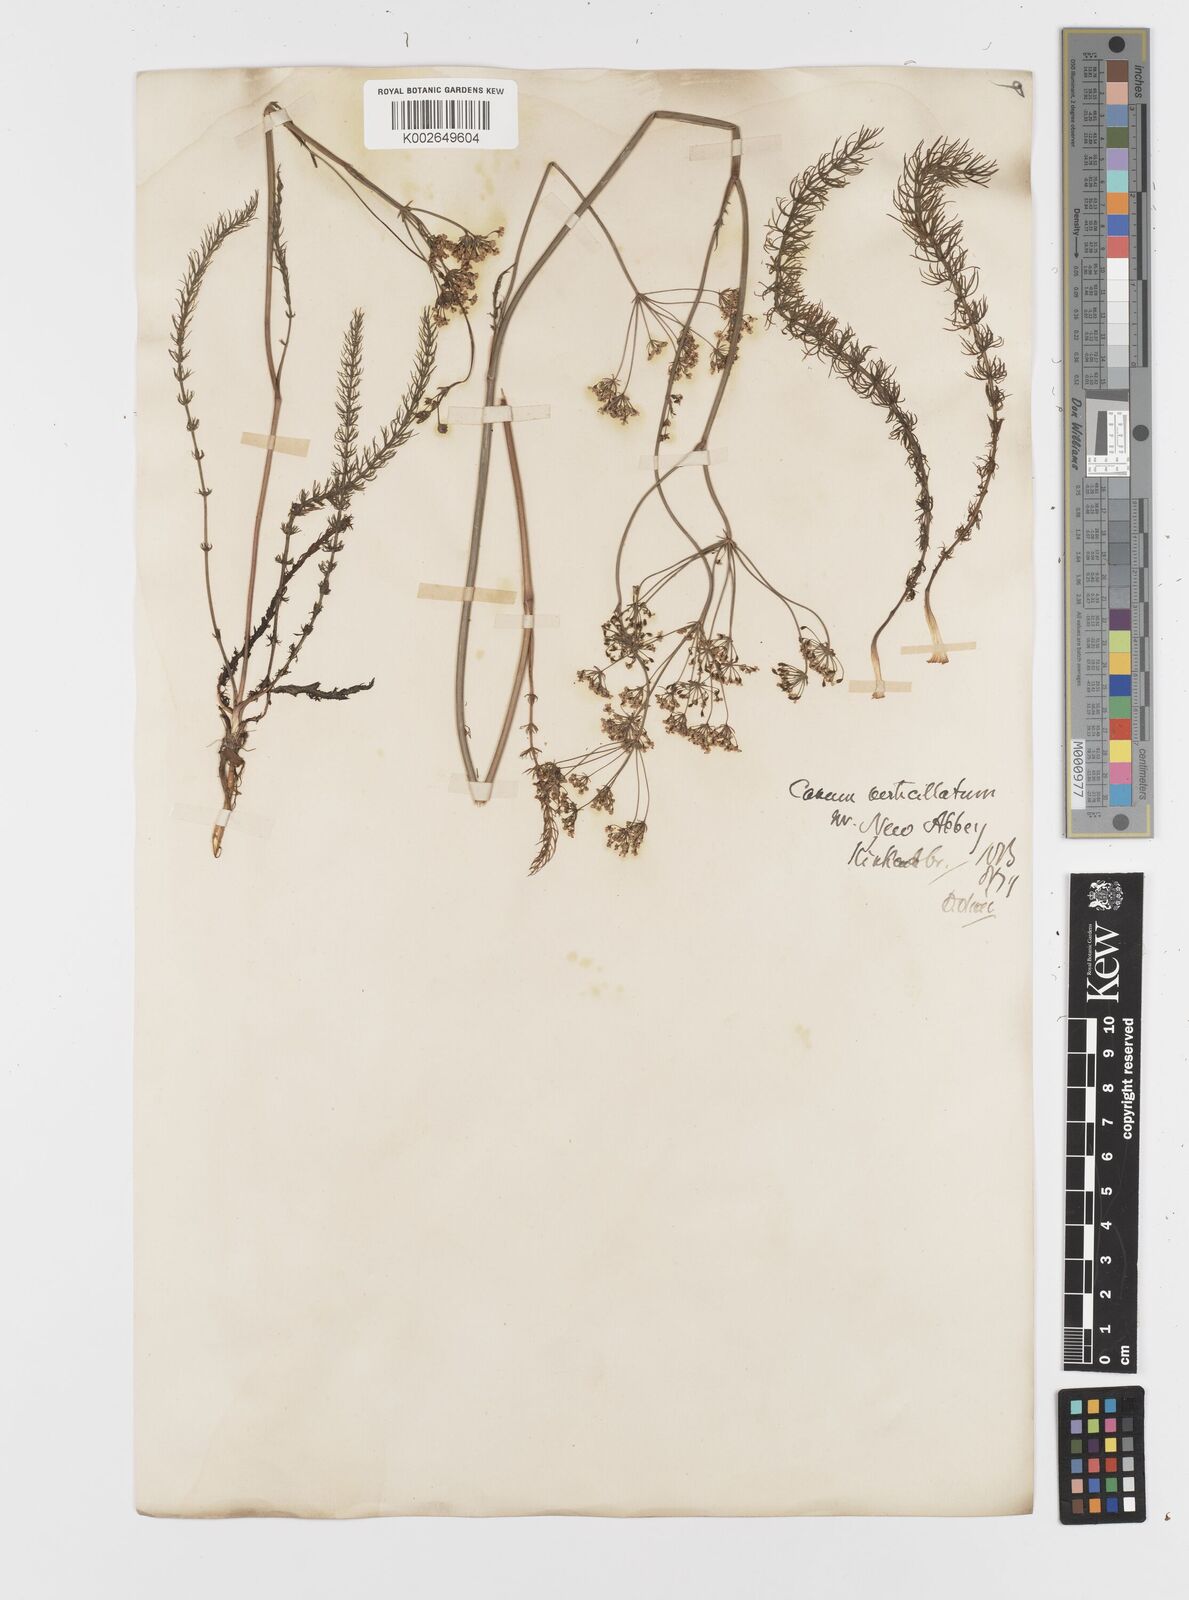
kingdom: Plantae
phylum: Tracheophyta
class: Magnoliopsida
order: Apiales
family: Apiaceae
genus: Trocdaris
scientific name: Trocdaris verticillatum
